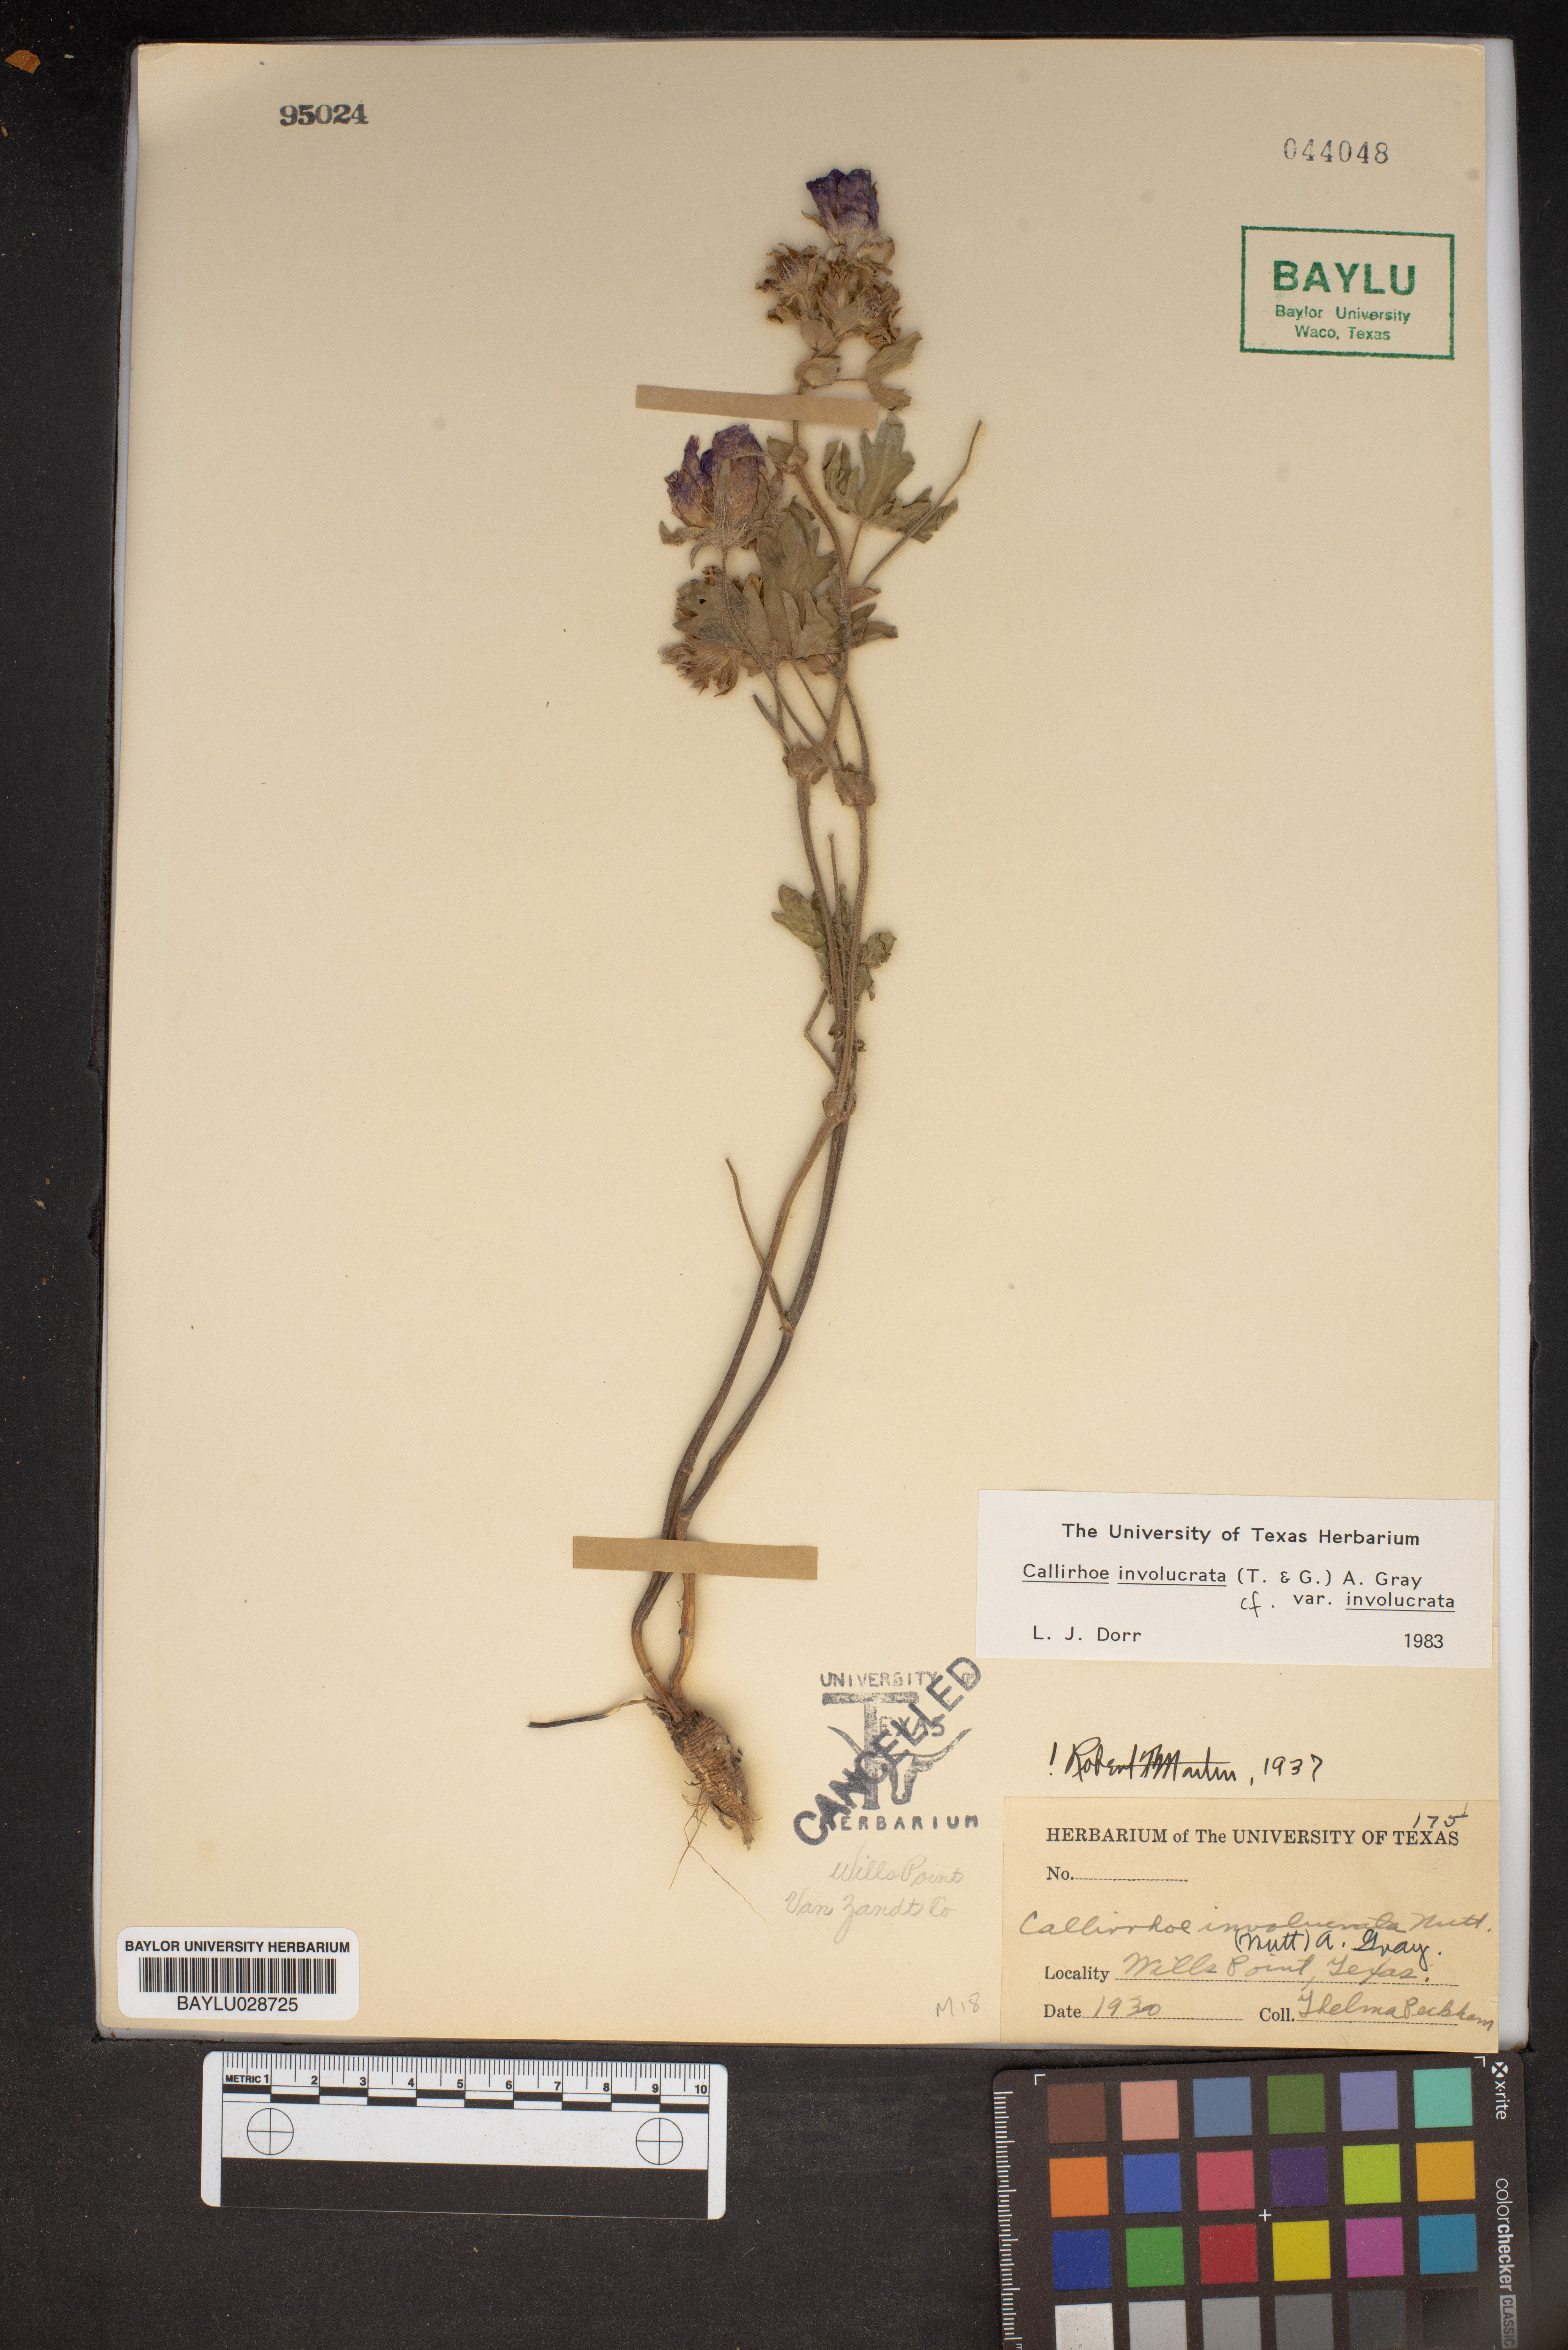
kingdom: Plantae
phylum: Tracheophyta
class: Magnoliopsida
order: Malvales
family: Malvaceae
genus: Callirhoe
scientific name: Callirhoe involucrata
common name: Purple poppy-mallow
